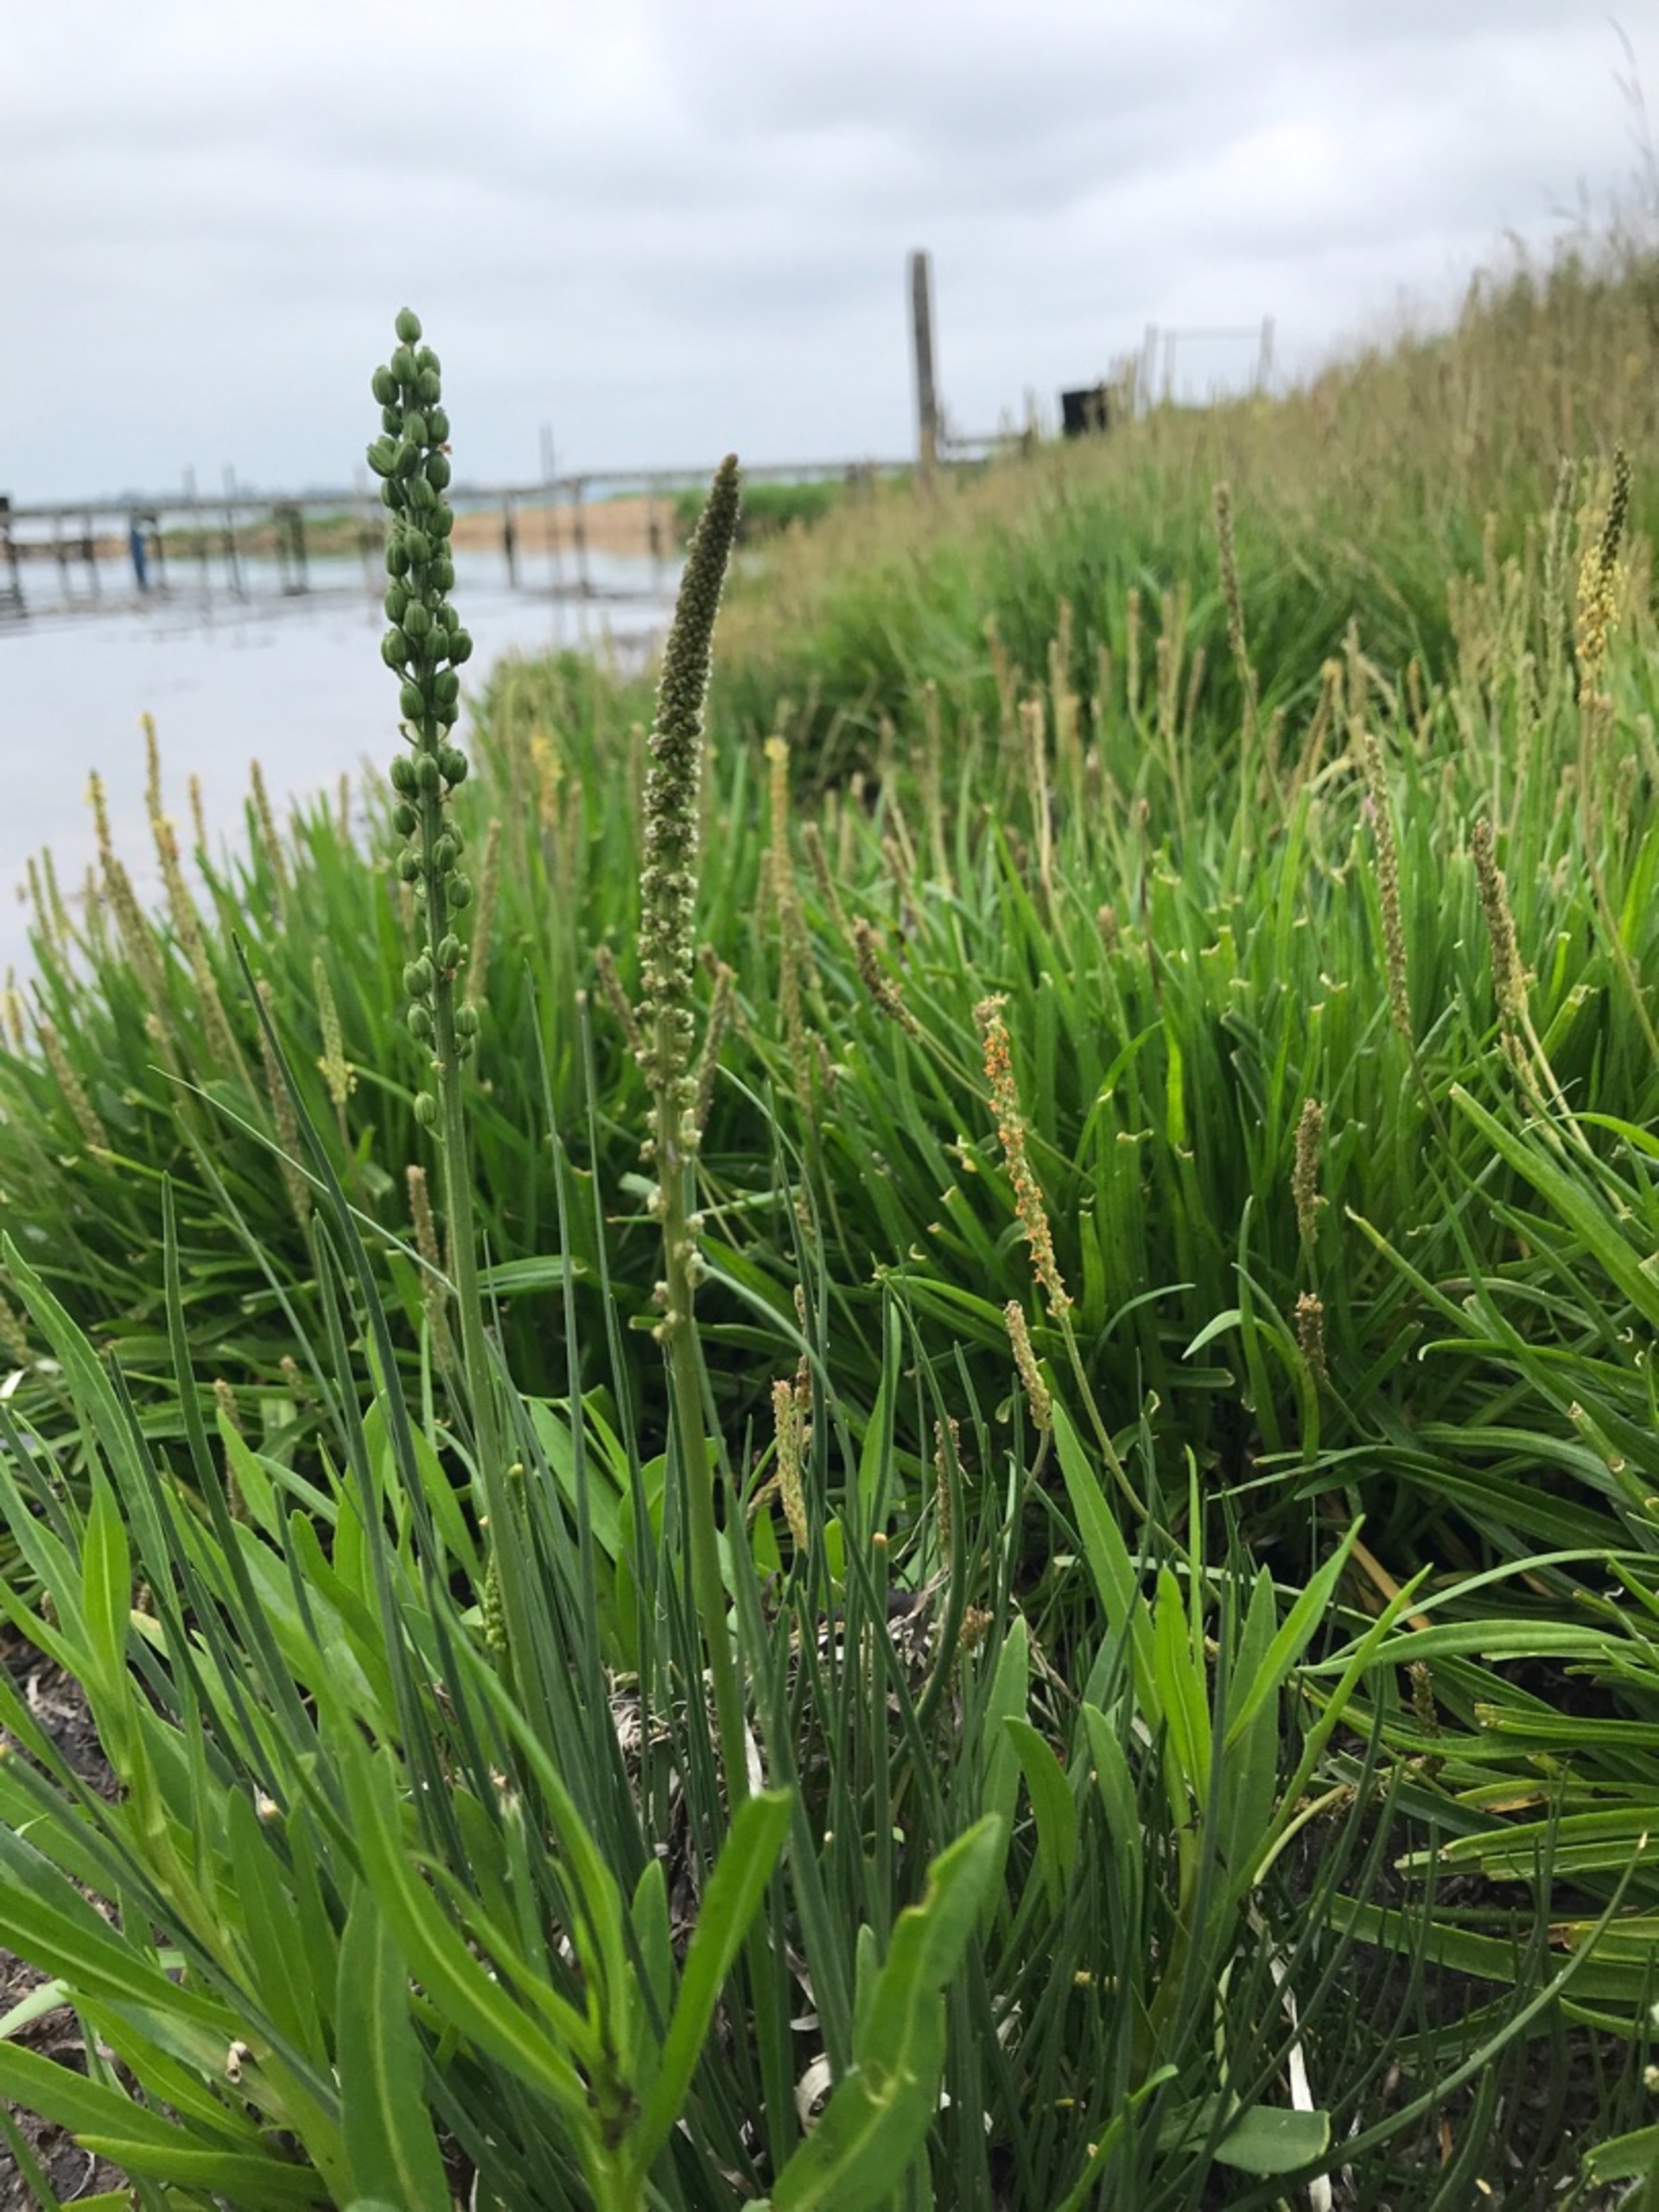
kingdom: Plantae
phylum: Tracheophyta
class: Liliopsida
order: Alismatales
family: Juncaginaceae
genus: Triglochin
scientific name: Triglochin maritima
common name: Strand-trehage
